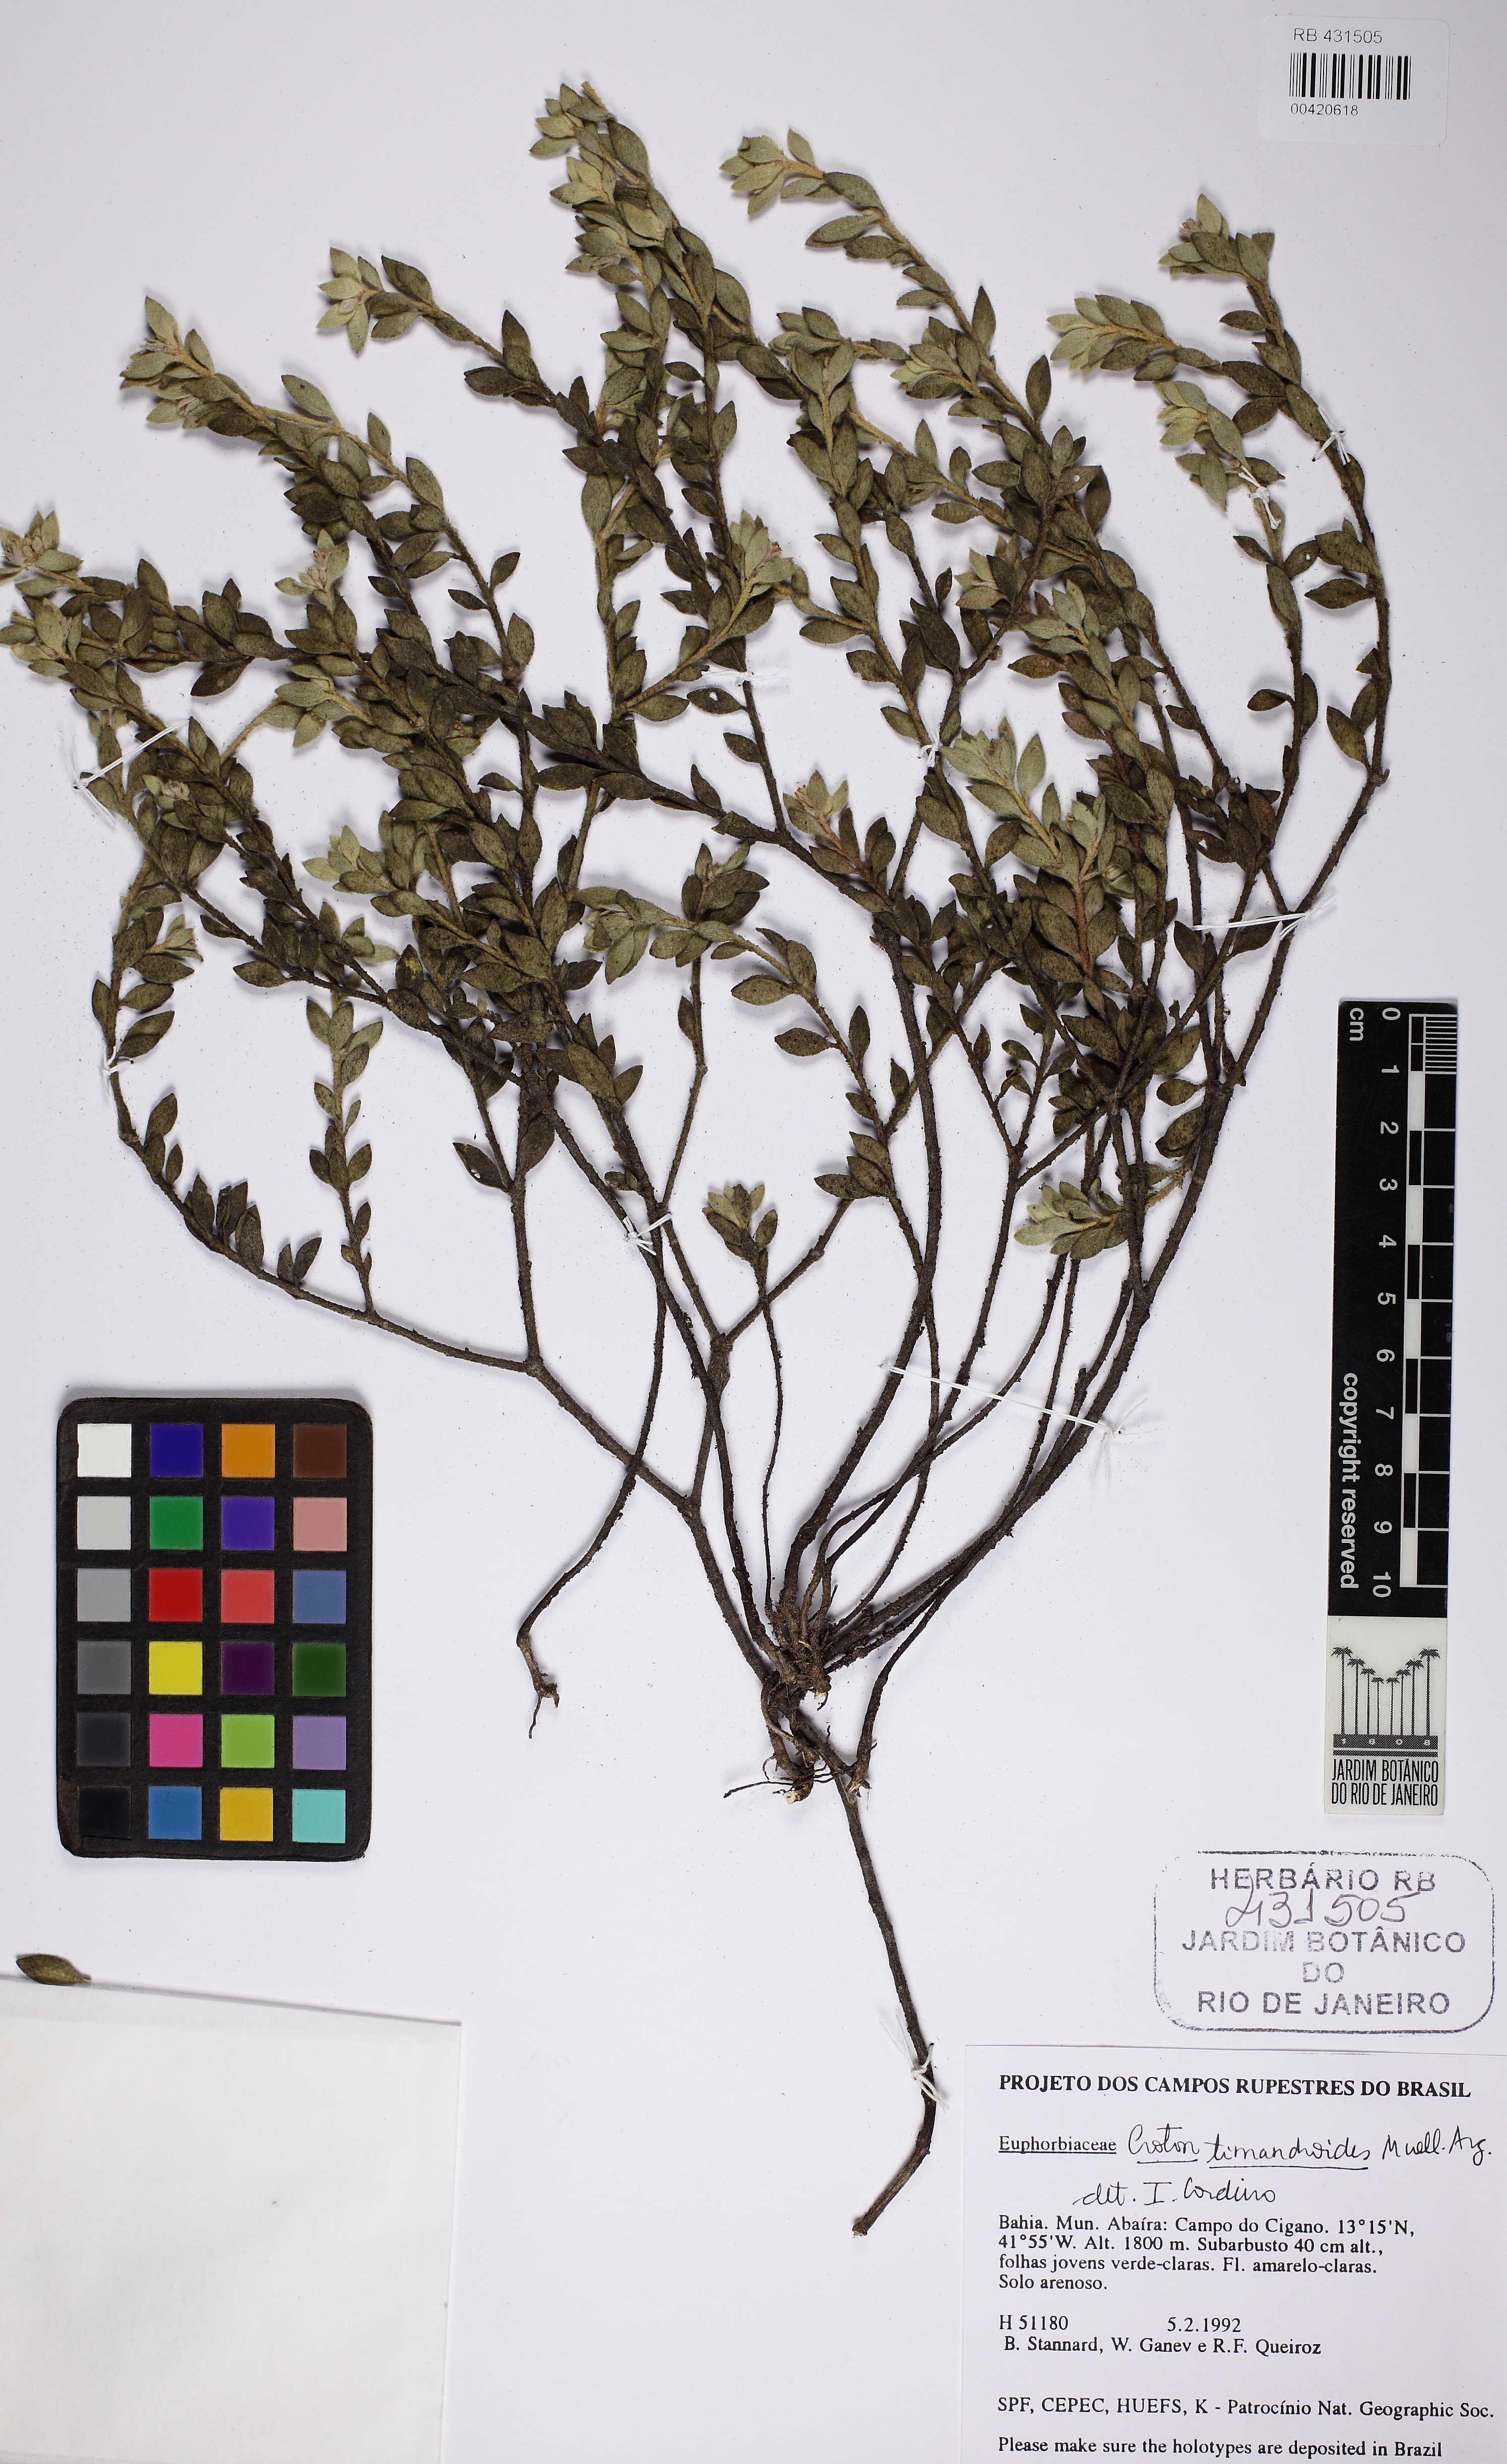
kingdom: Plantae
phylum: Tracheophyta
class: Magnoliopsida
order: Malpighiales
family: Euphorbiaceae
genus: Croton
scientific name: Croton timandroides
